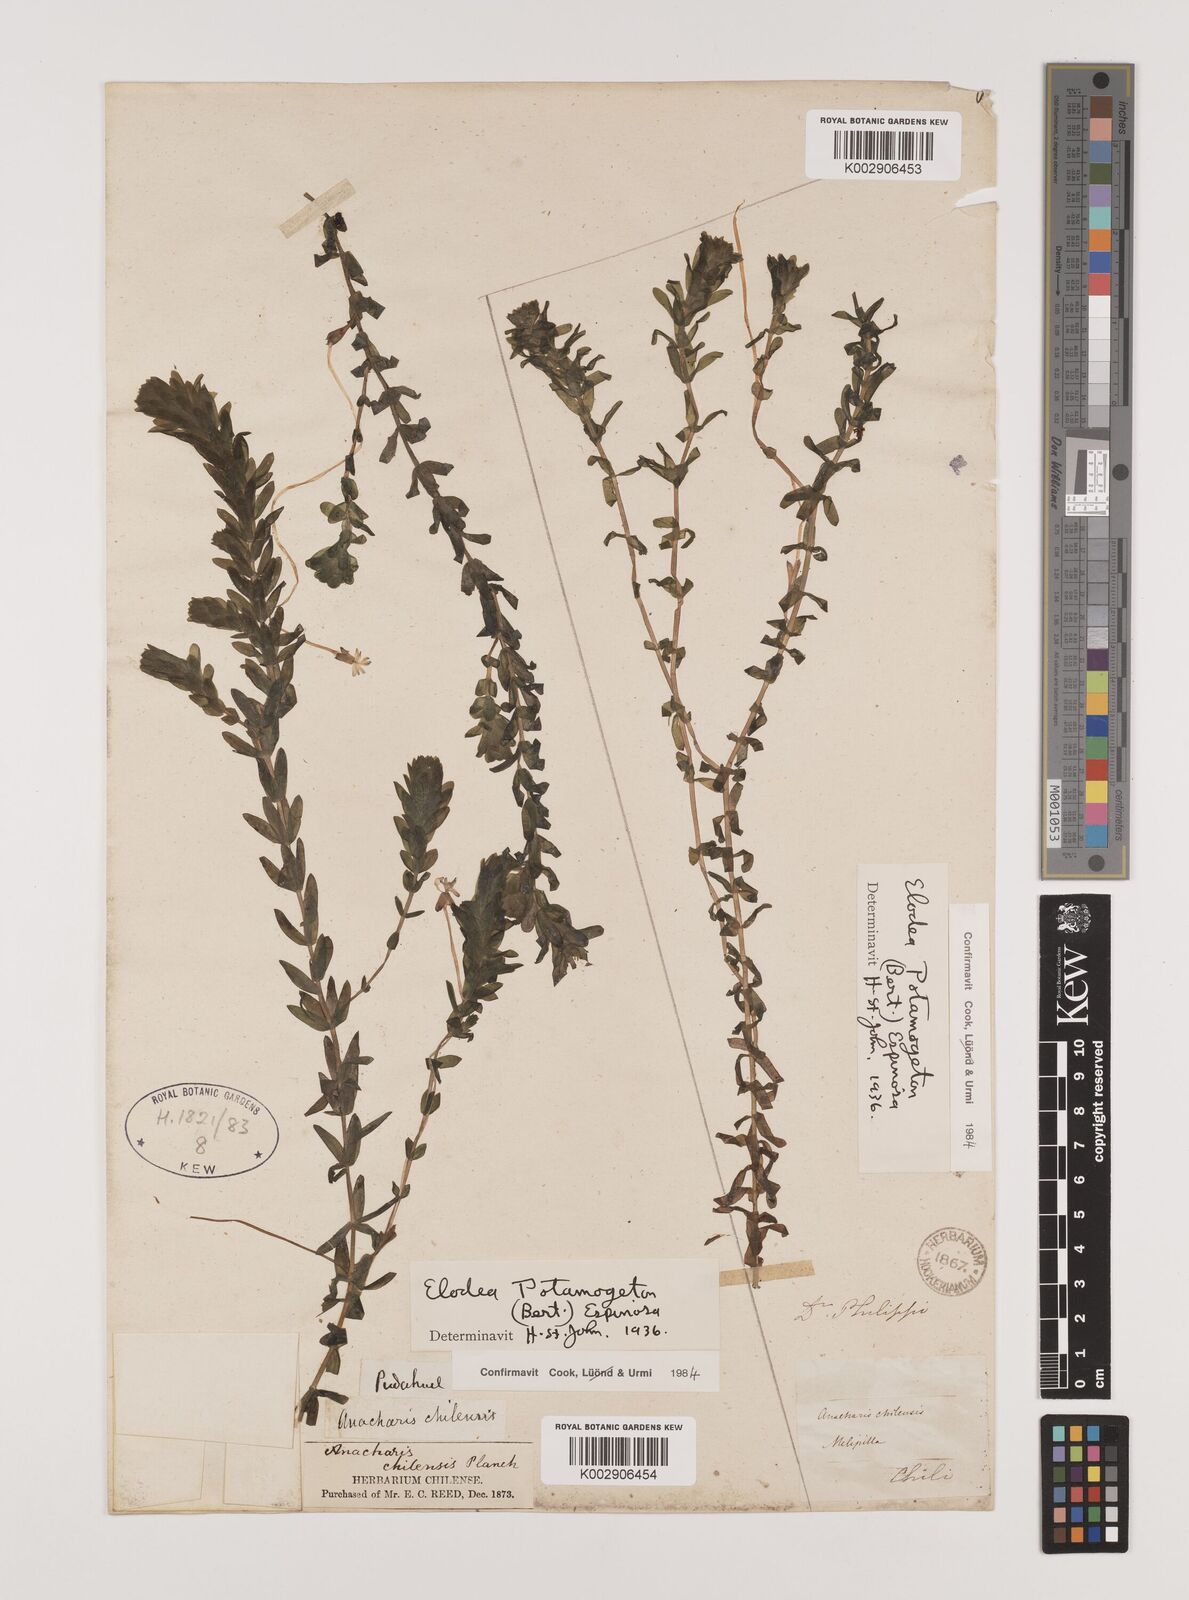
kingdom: Plantae
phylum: Tracheophyta
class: Liliopsida
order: Alismatales
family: Hydrocharitaceae
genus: Elodea
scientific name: Elodea potamogeton
